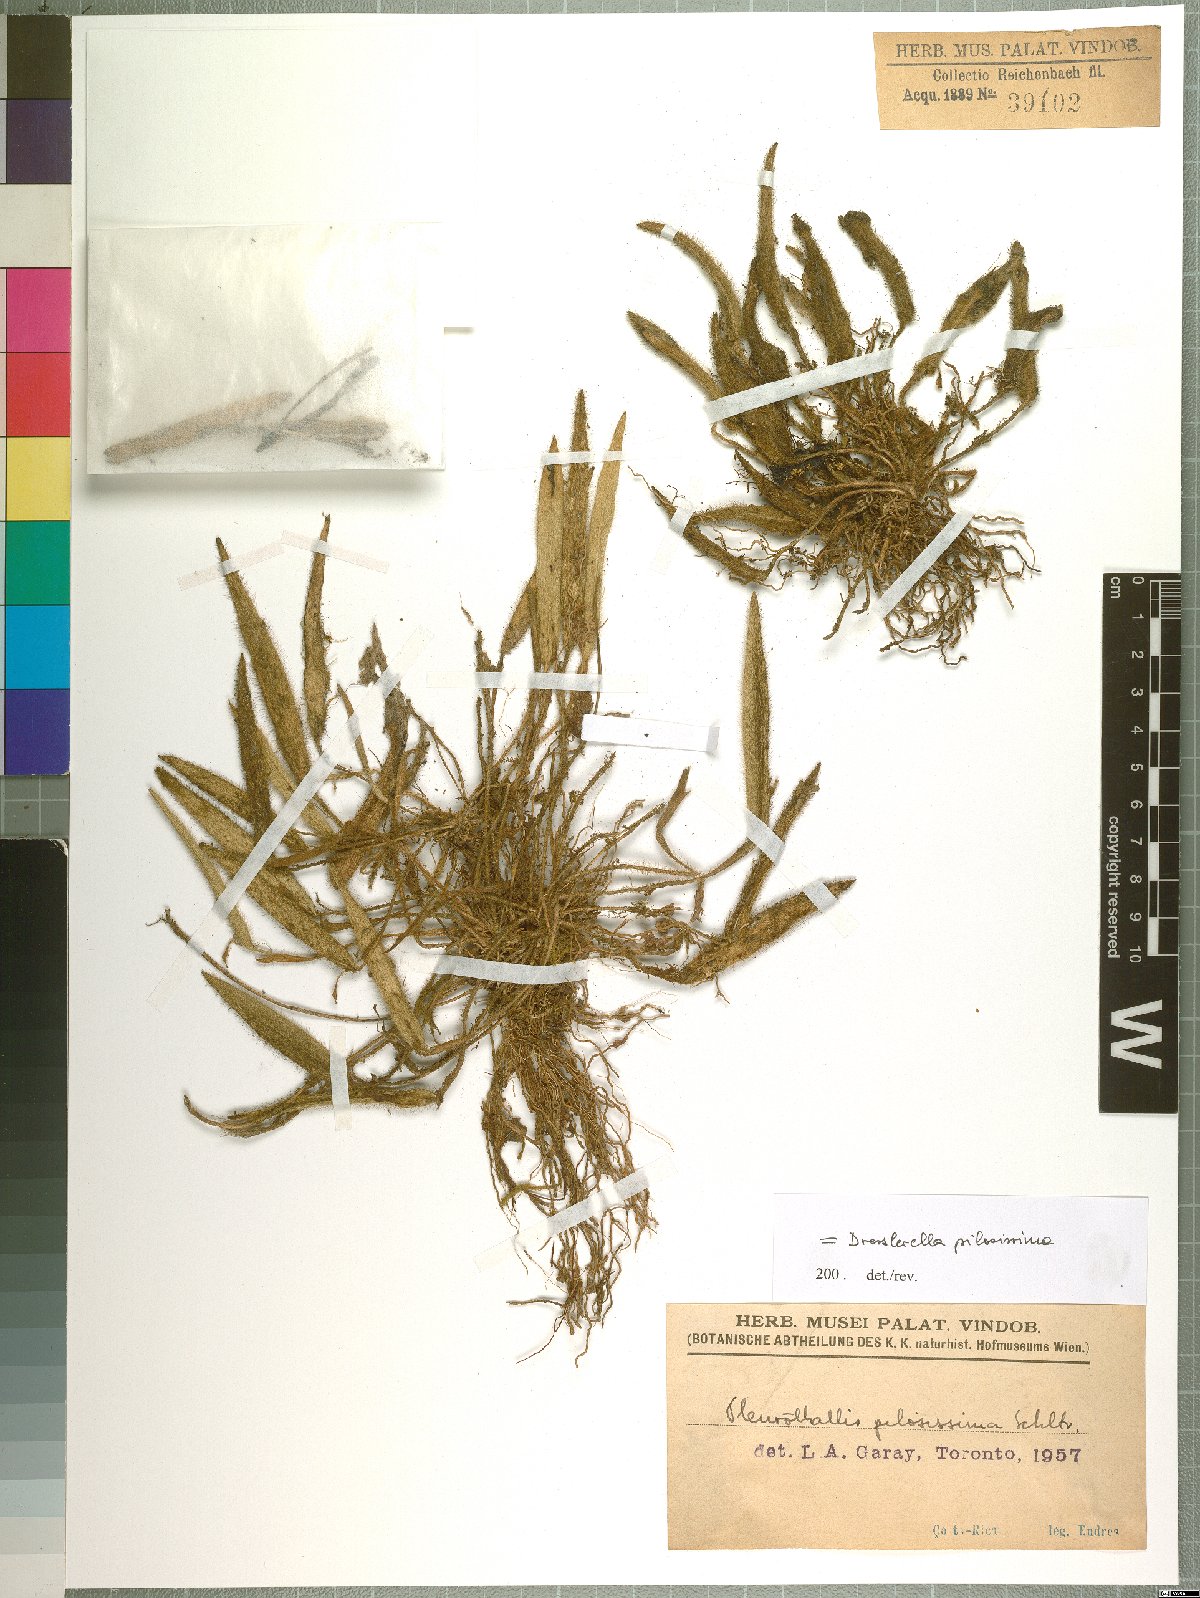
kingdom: Plantae
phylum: Tracheophyta
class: Liliopsida
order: Asparagales
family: Orchidaceae
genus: Dresslerella
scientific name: Dresslerella pilosissima
